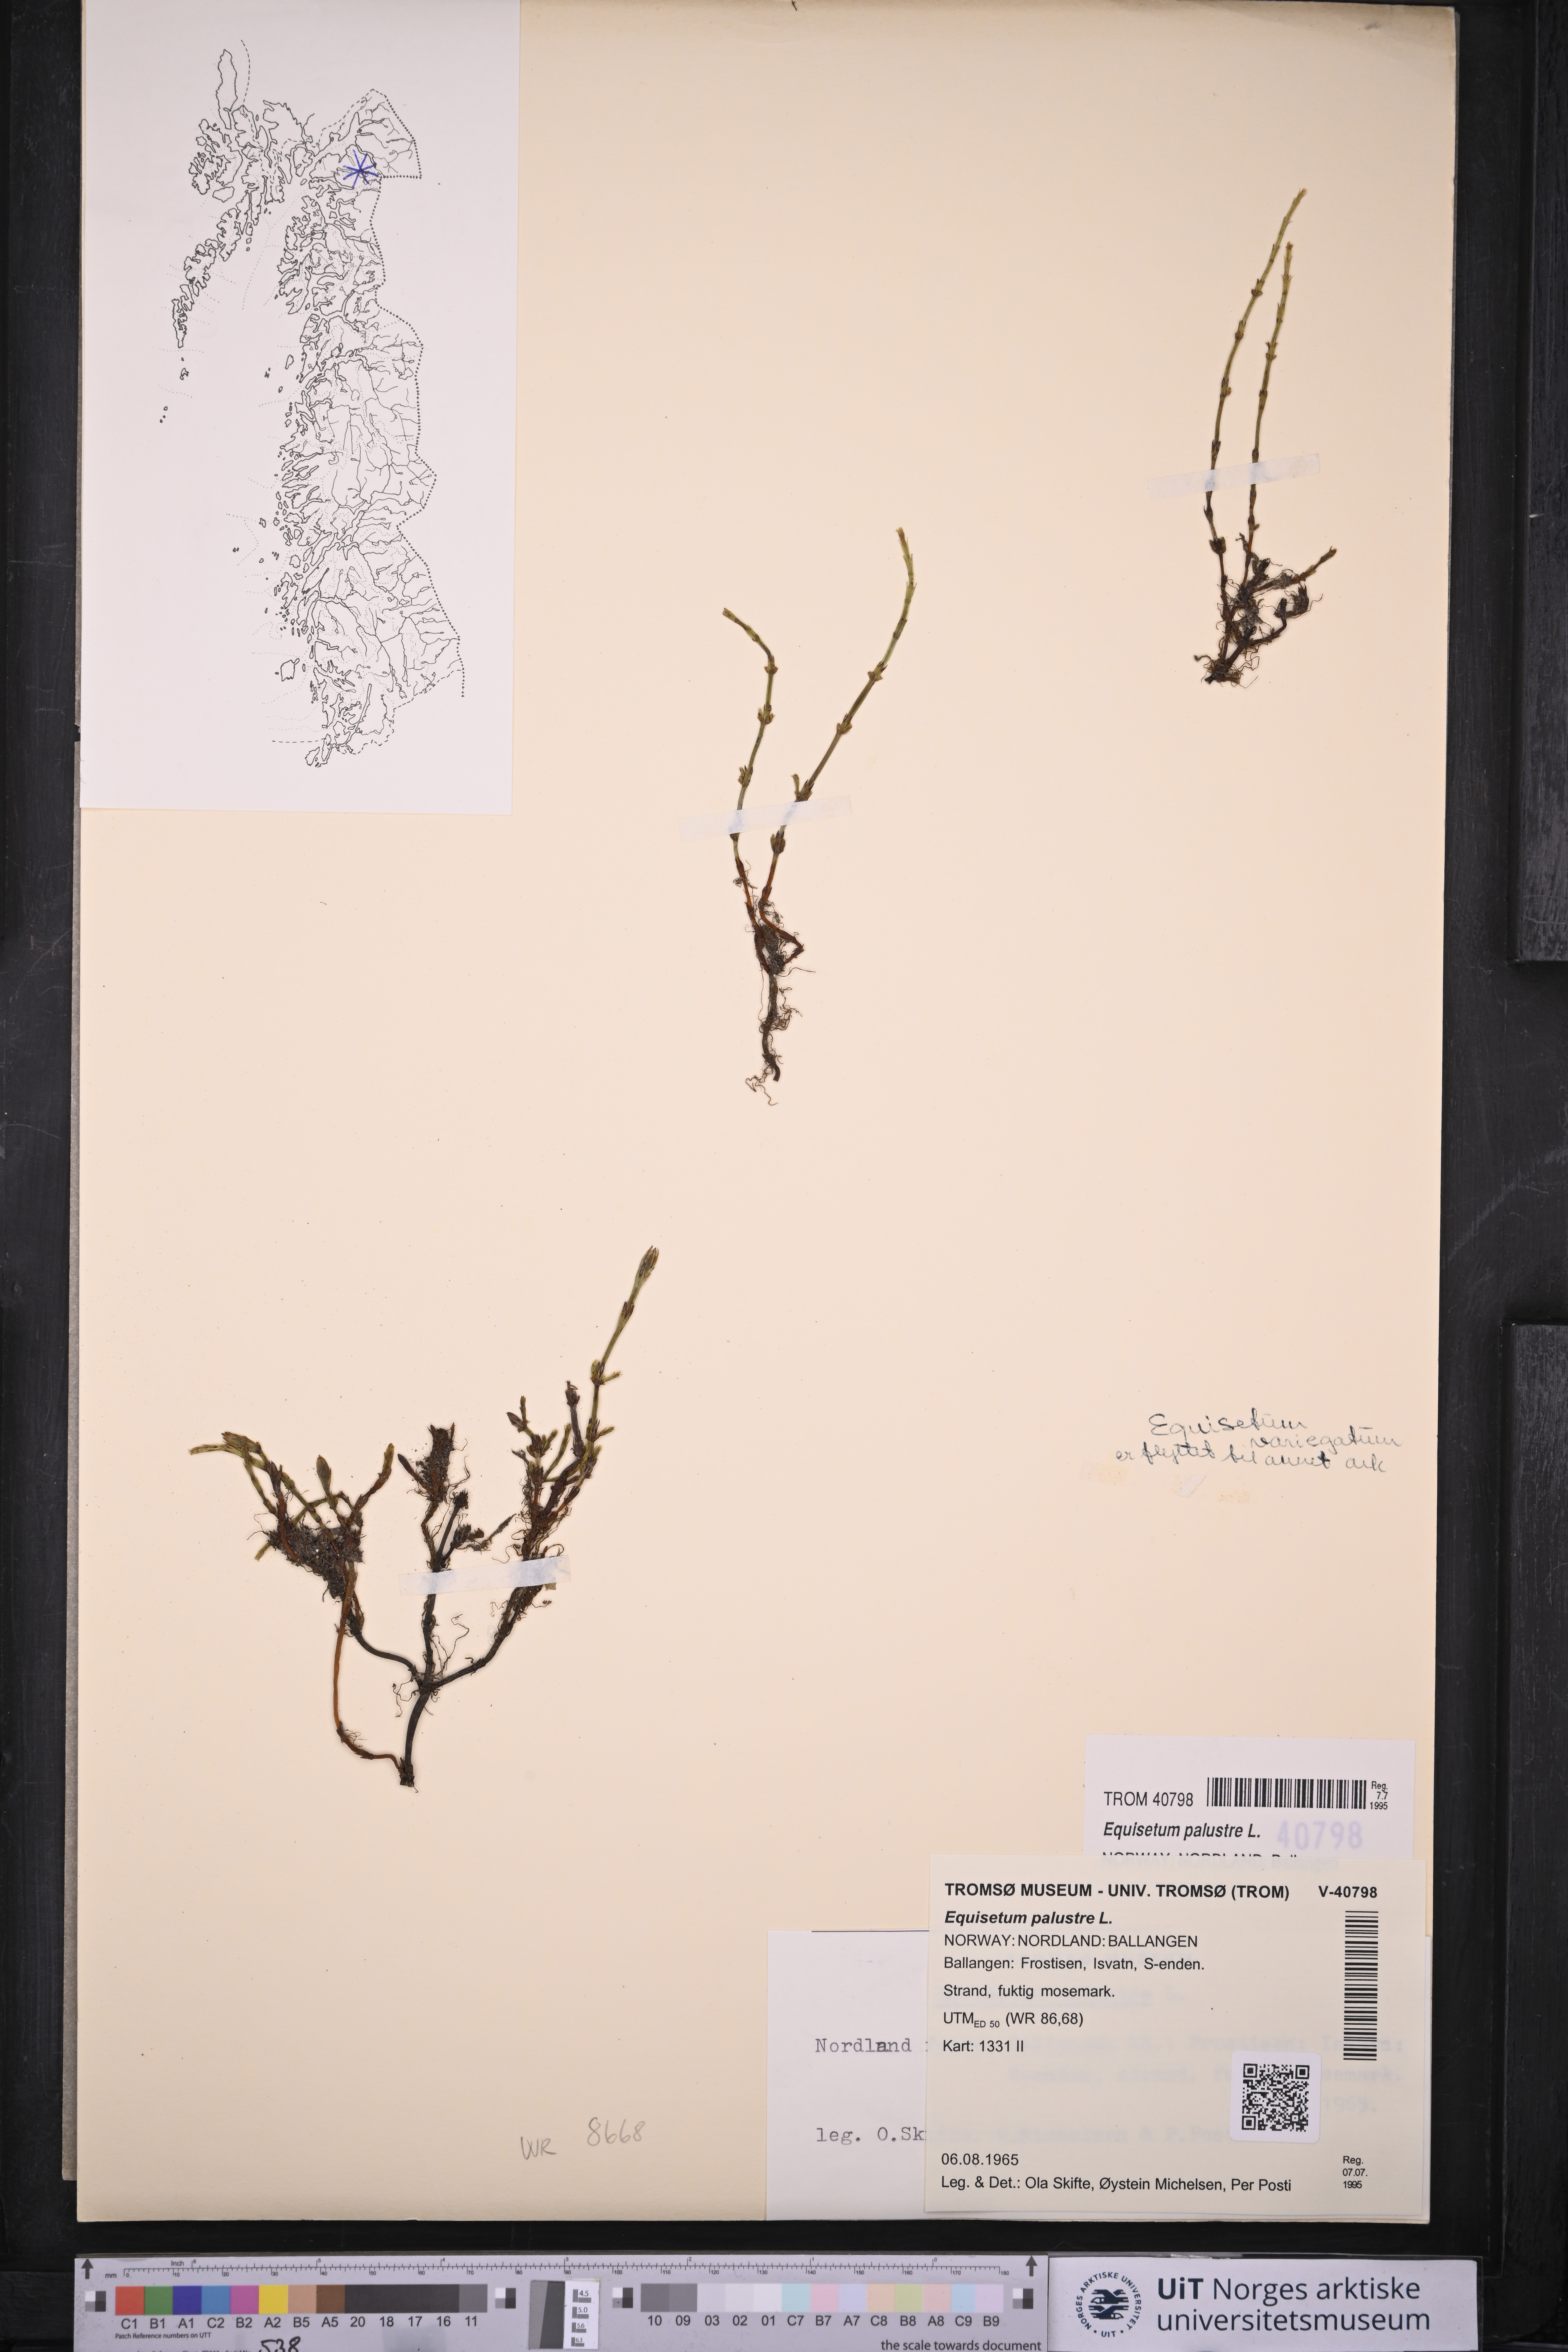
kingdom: Plantae
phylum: Tracheophyta
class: Polypodiopsida
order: Equisetales
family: Equisetaceae
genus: Equisetum
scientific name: Equisetum palustre
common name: Marsh horsetail
